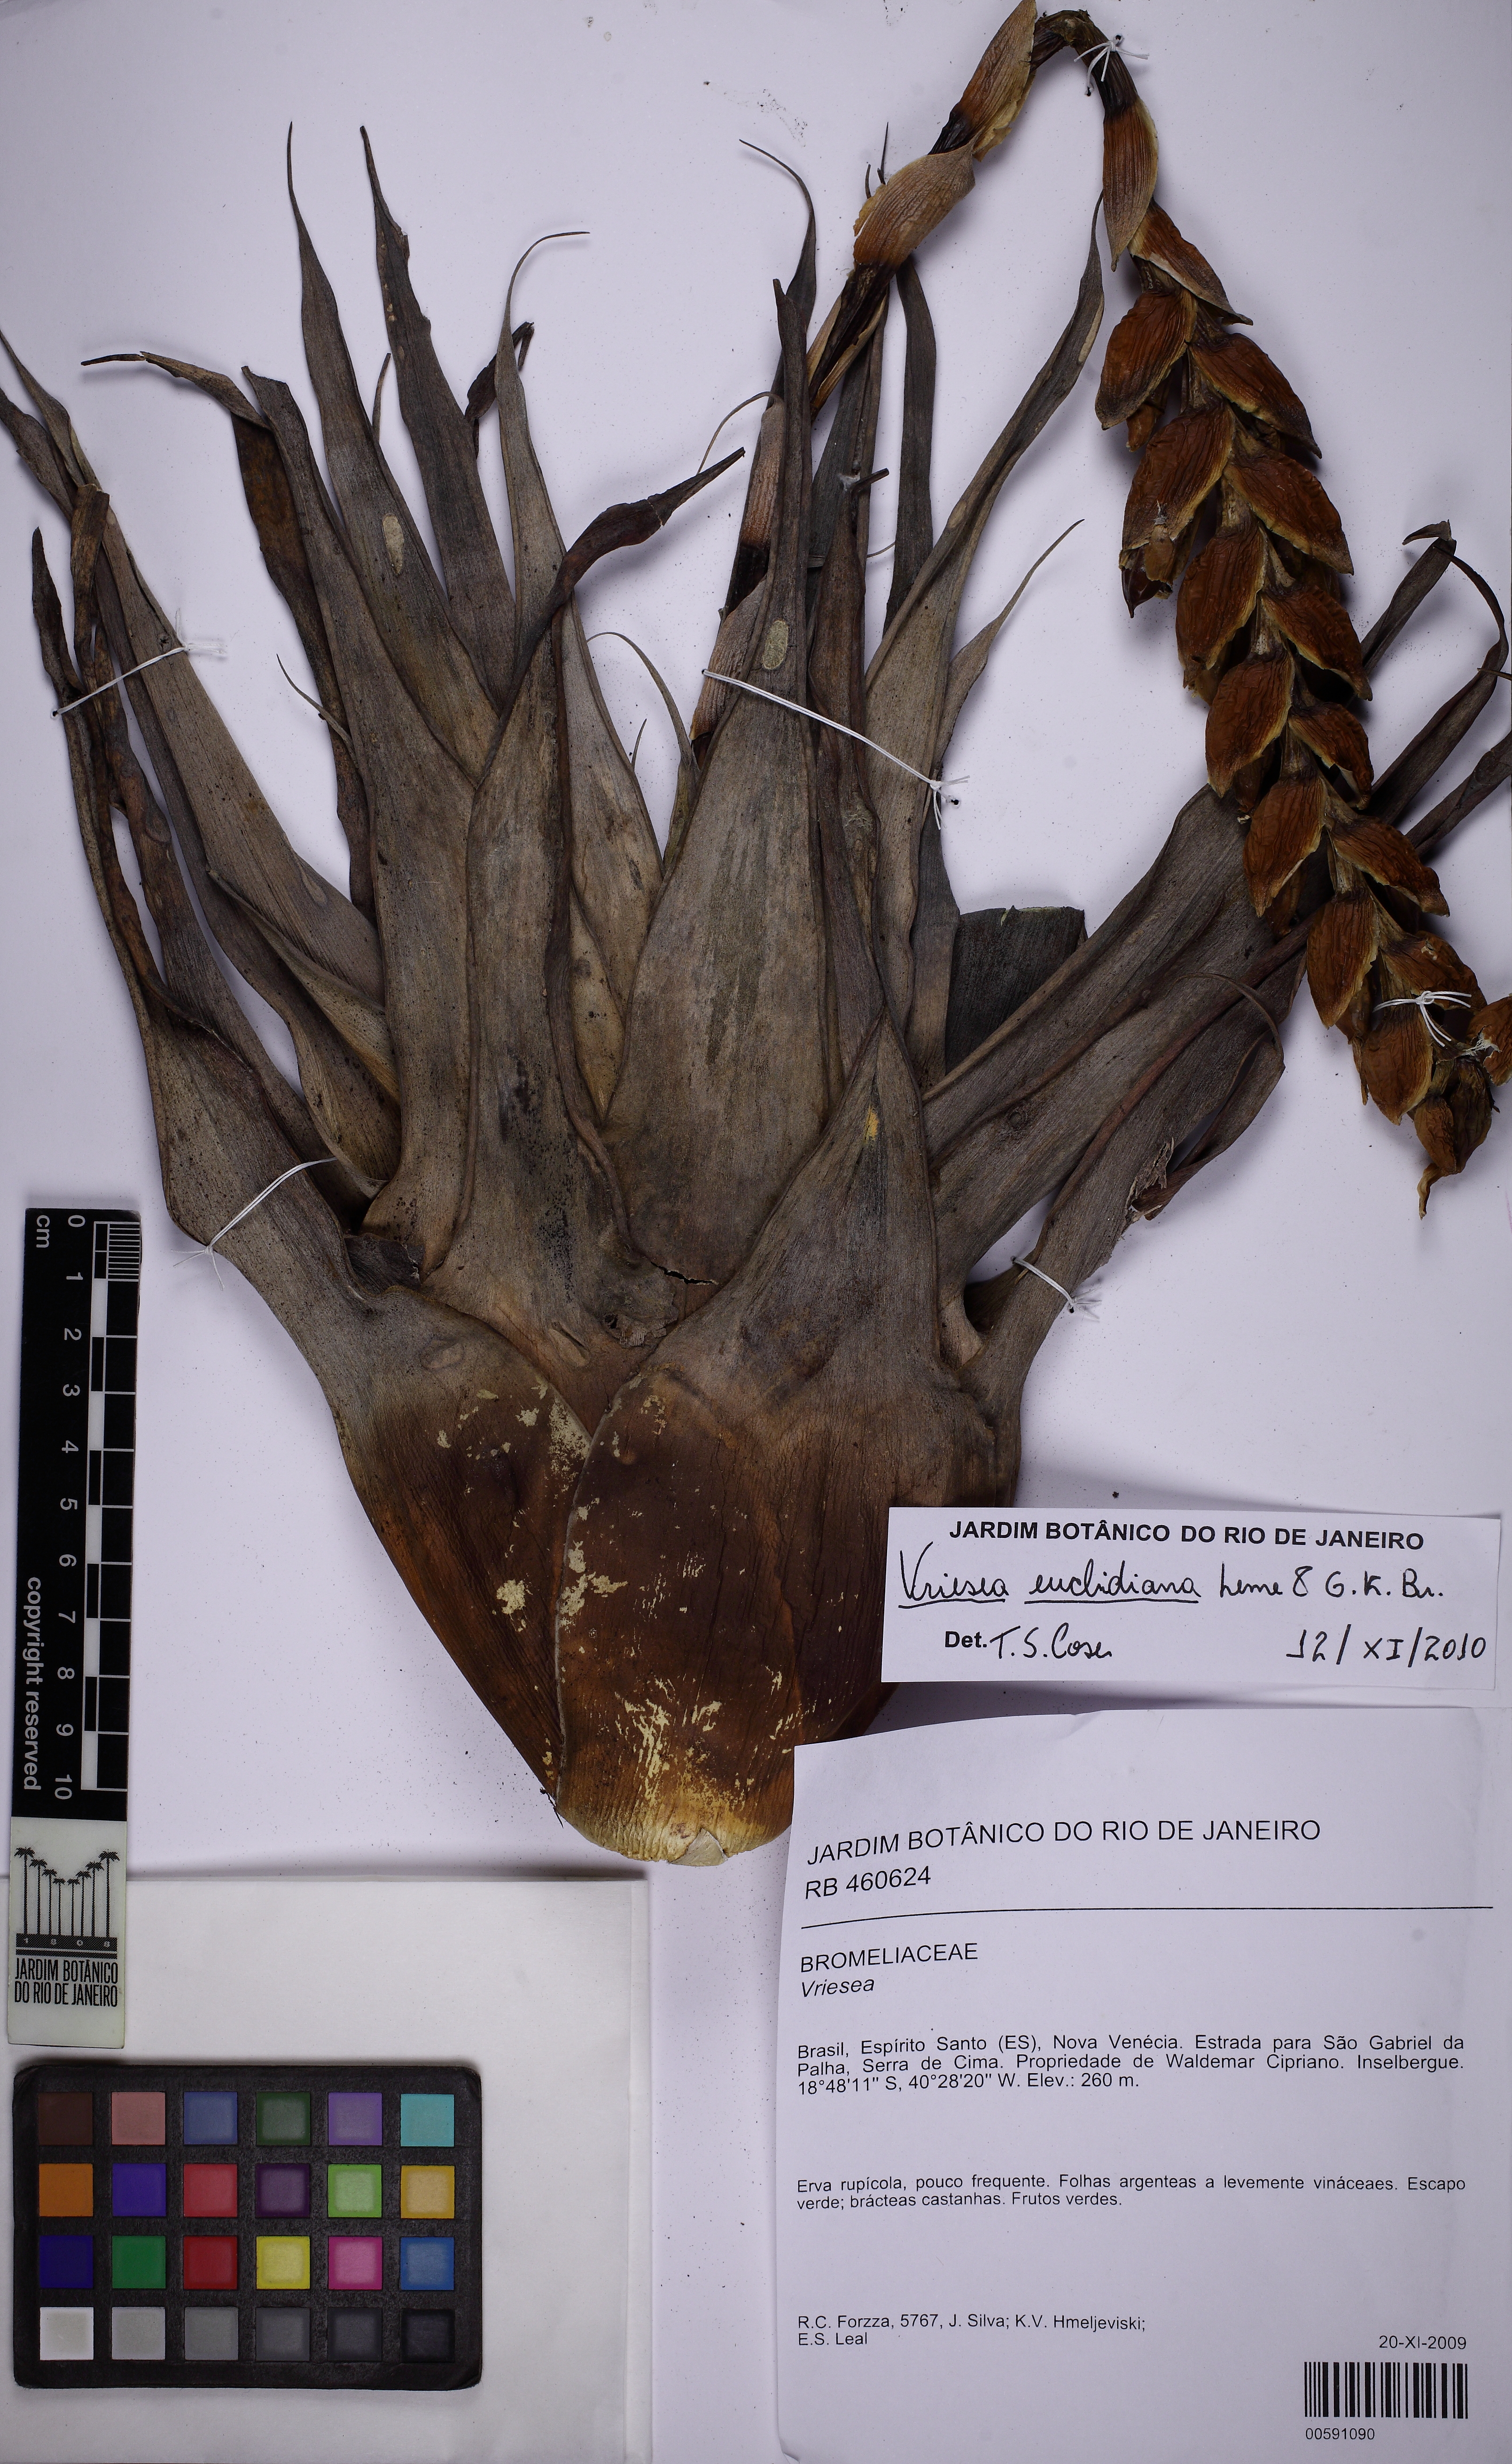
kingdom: Plantae
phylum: Tracheophyta
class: Liliopsida
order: Poales
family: Bromeliaceae
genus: Stigmatodon
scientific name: Stigmatodon apparicianus
